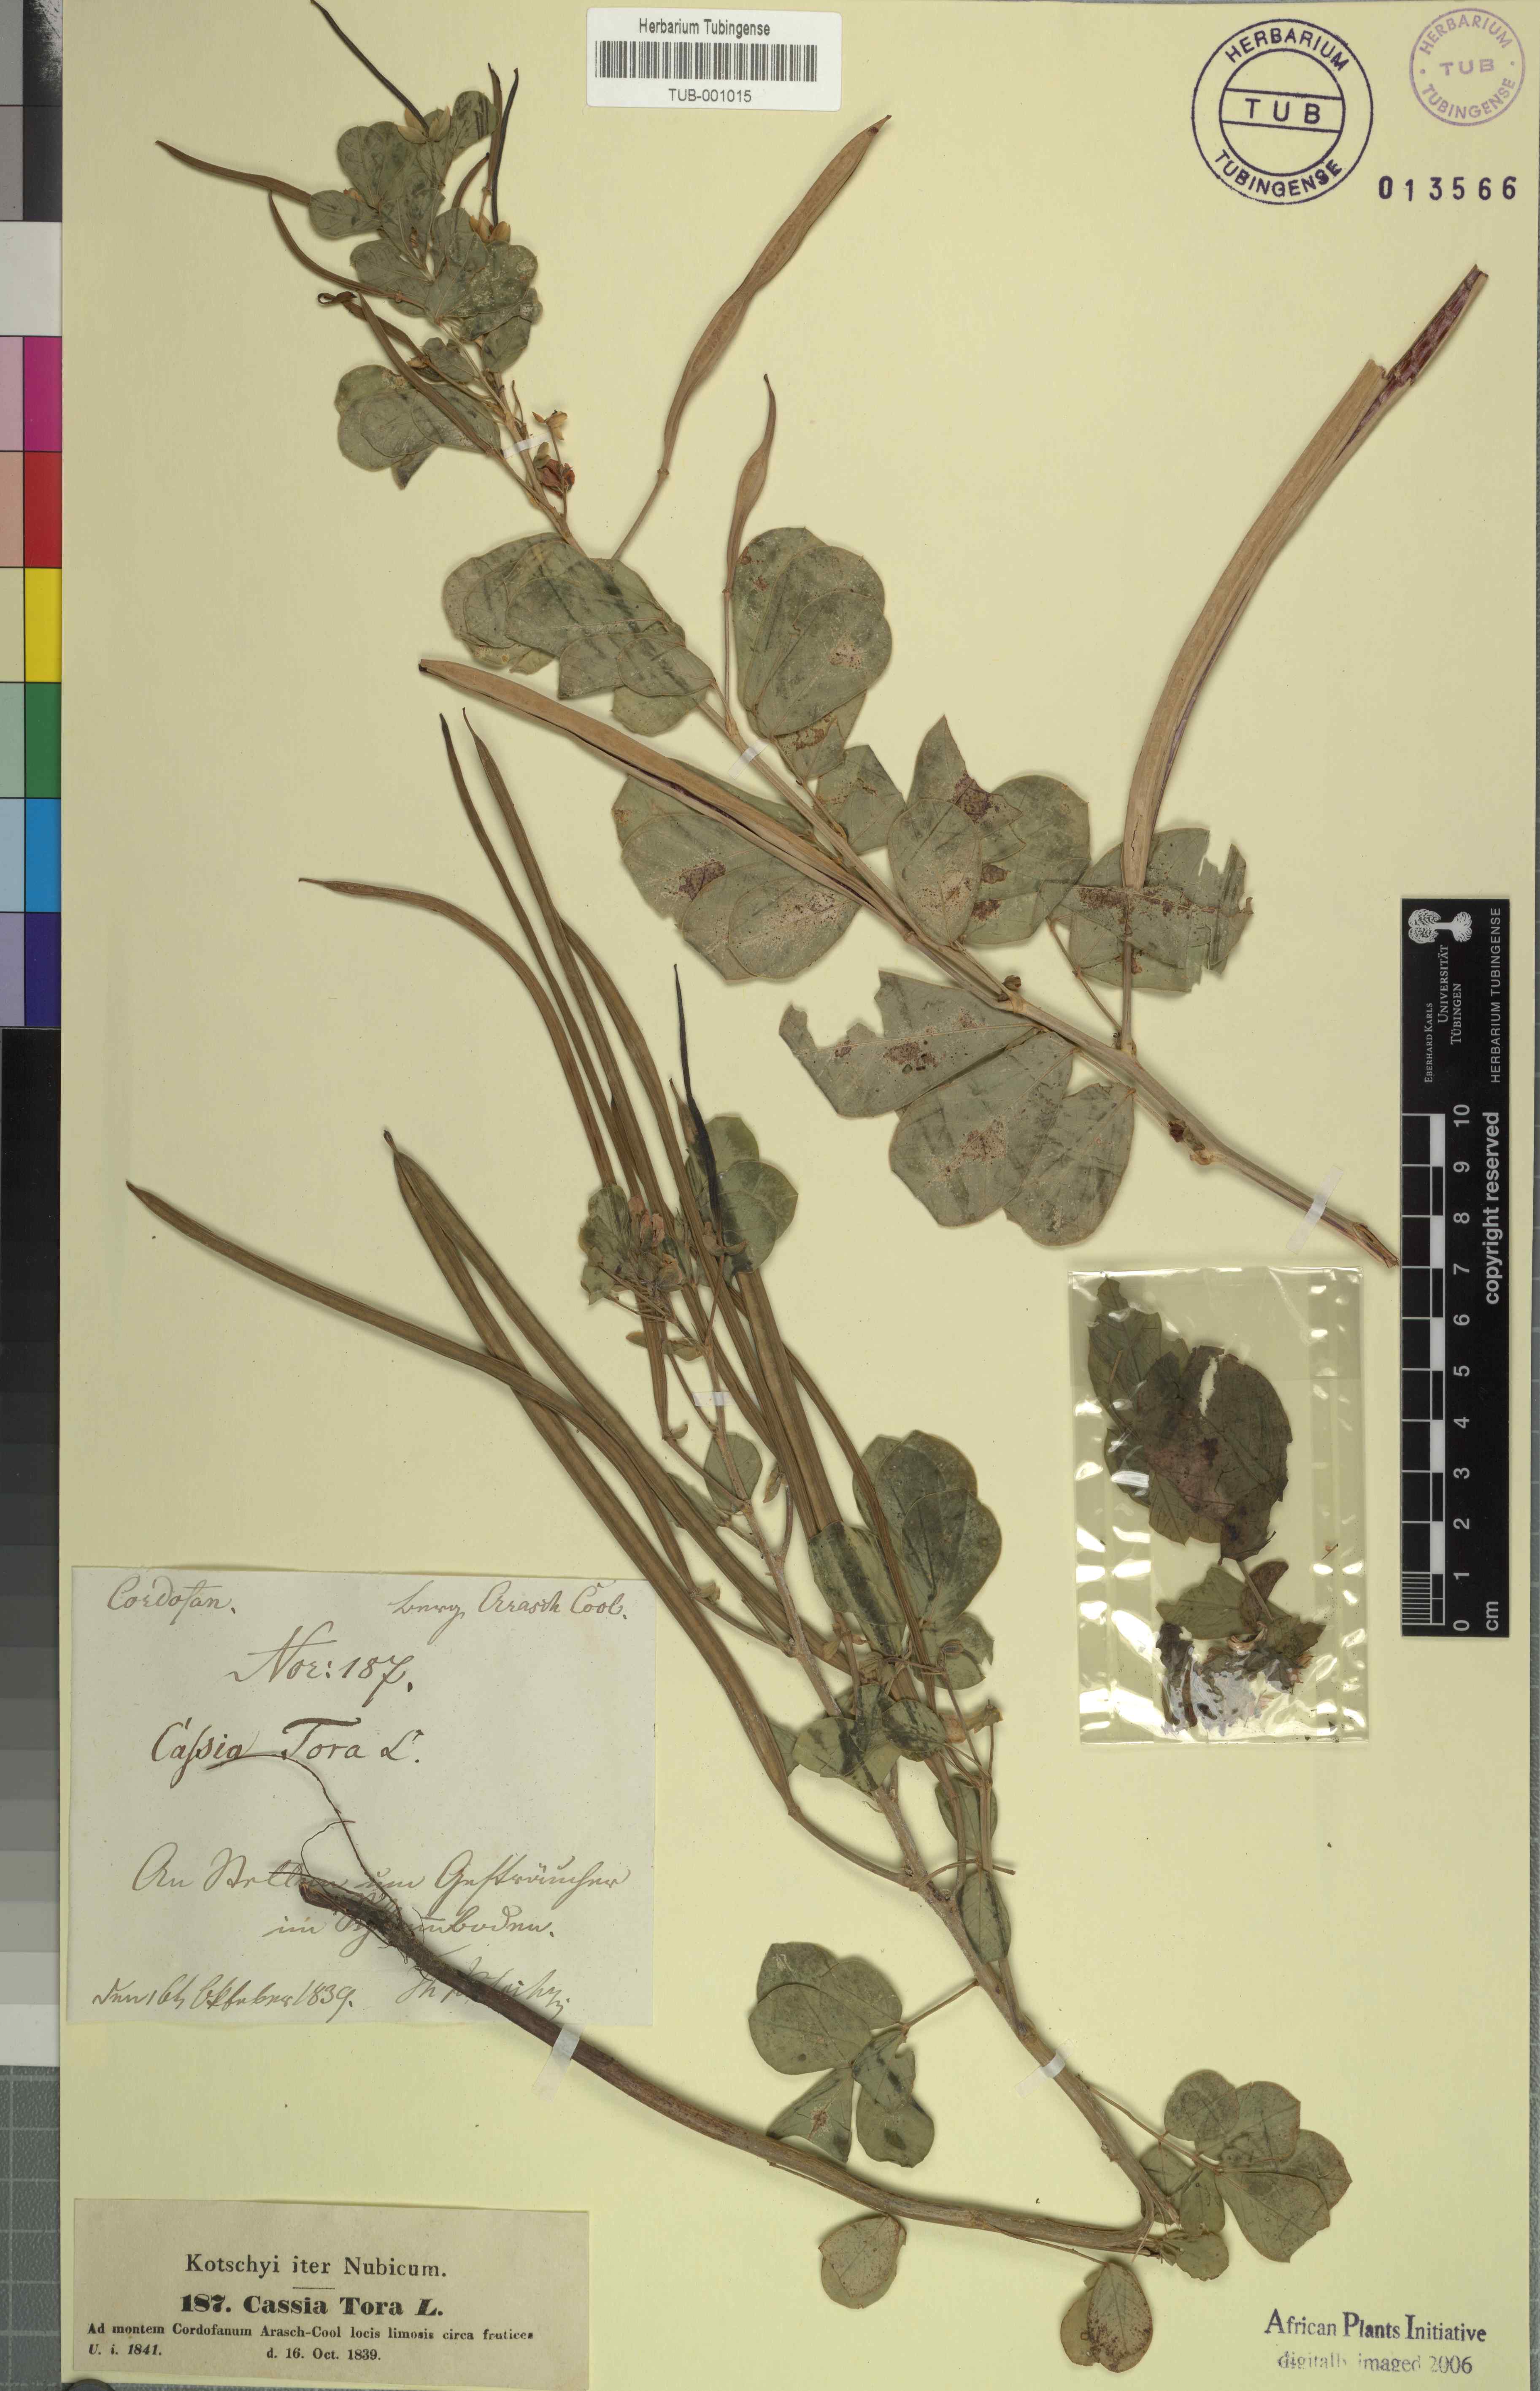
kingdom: Plantae
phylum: Tracheophyta
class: Magnoliopsida
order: Fabales
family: Fabaceae
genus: Senna
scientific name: Senna tora
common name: Sickle senna
